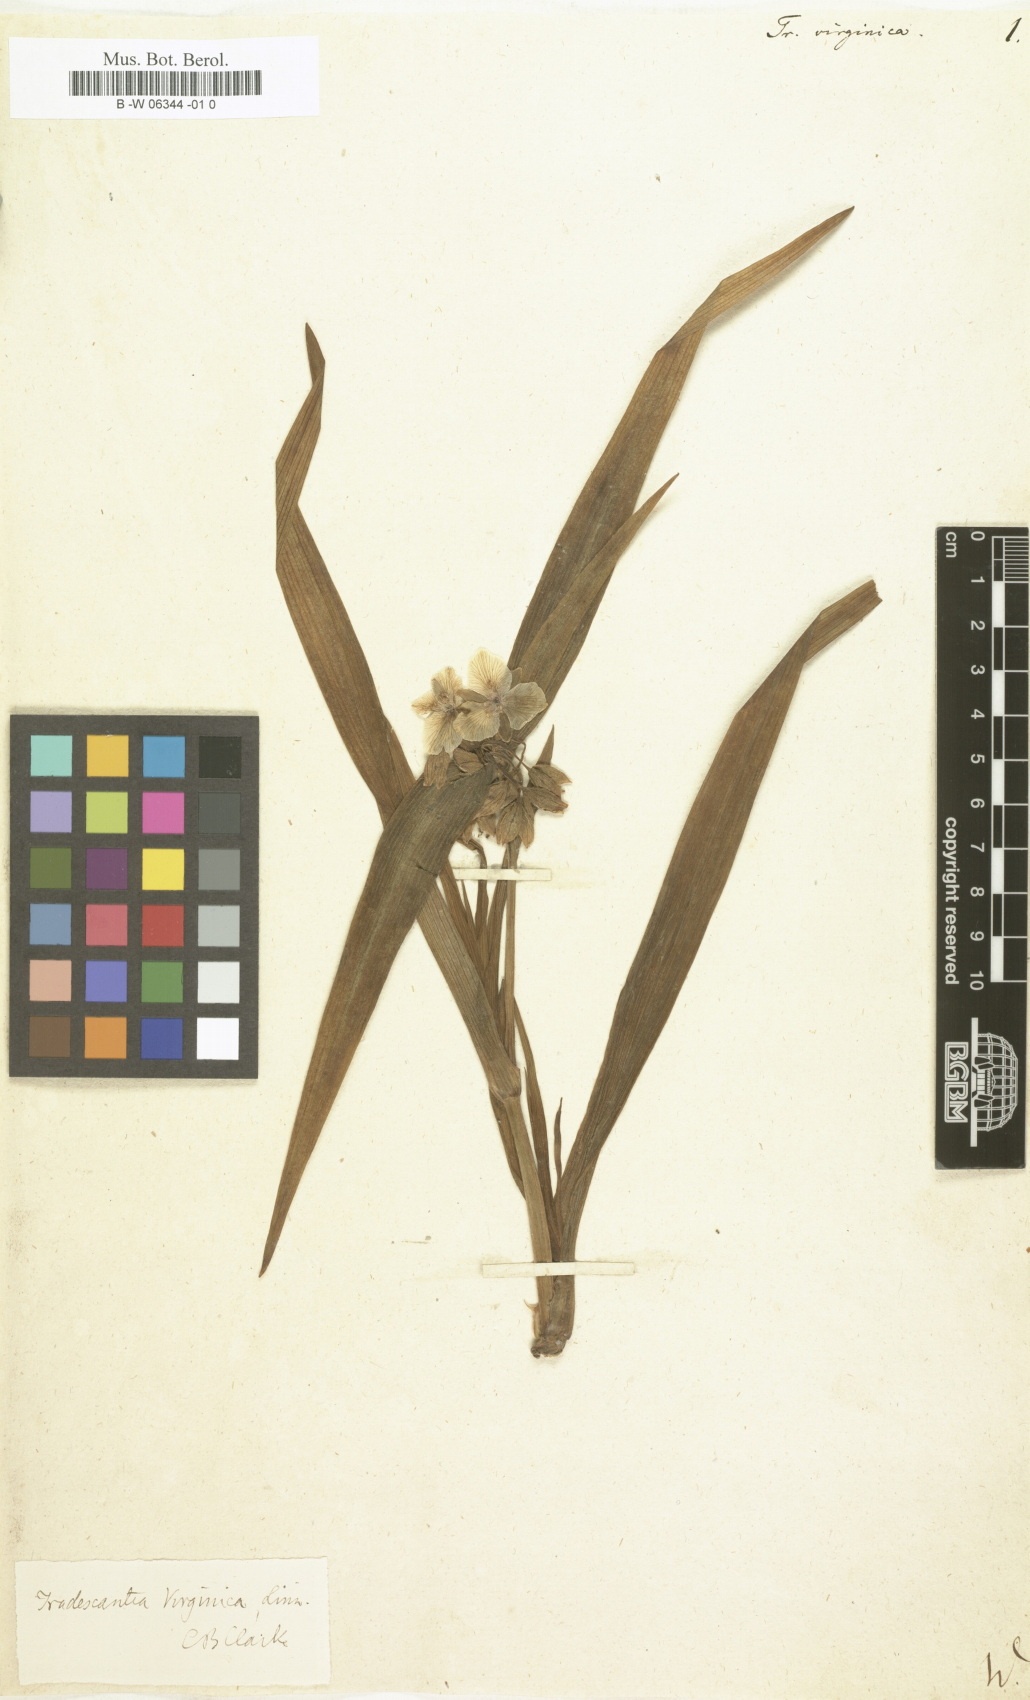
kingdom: Plantae
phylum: Tracheophyta
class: Liliopsida
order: Commelinales
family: Commelinaceae
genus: Tradescantia
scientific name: Tradescantia virginica
